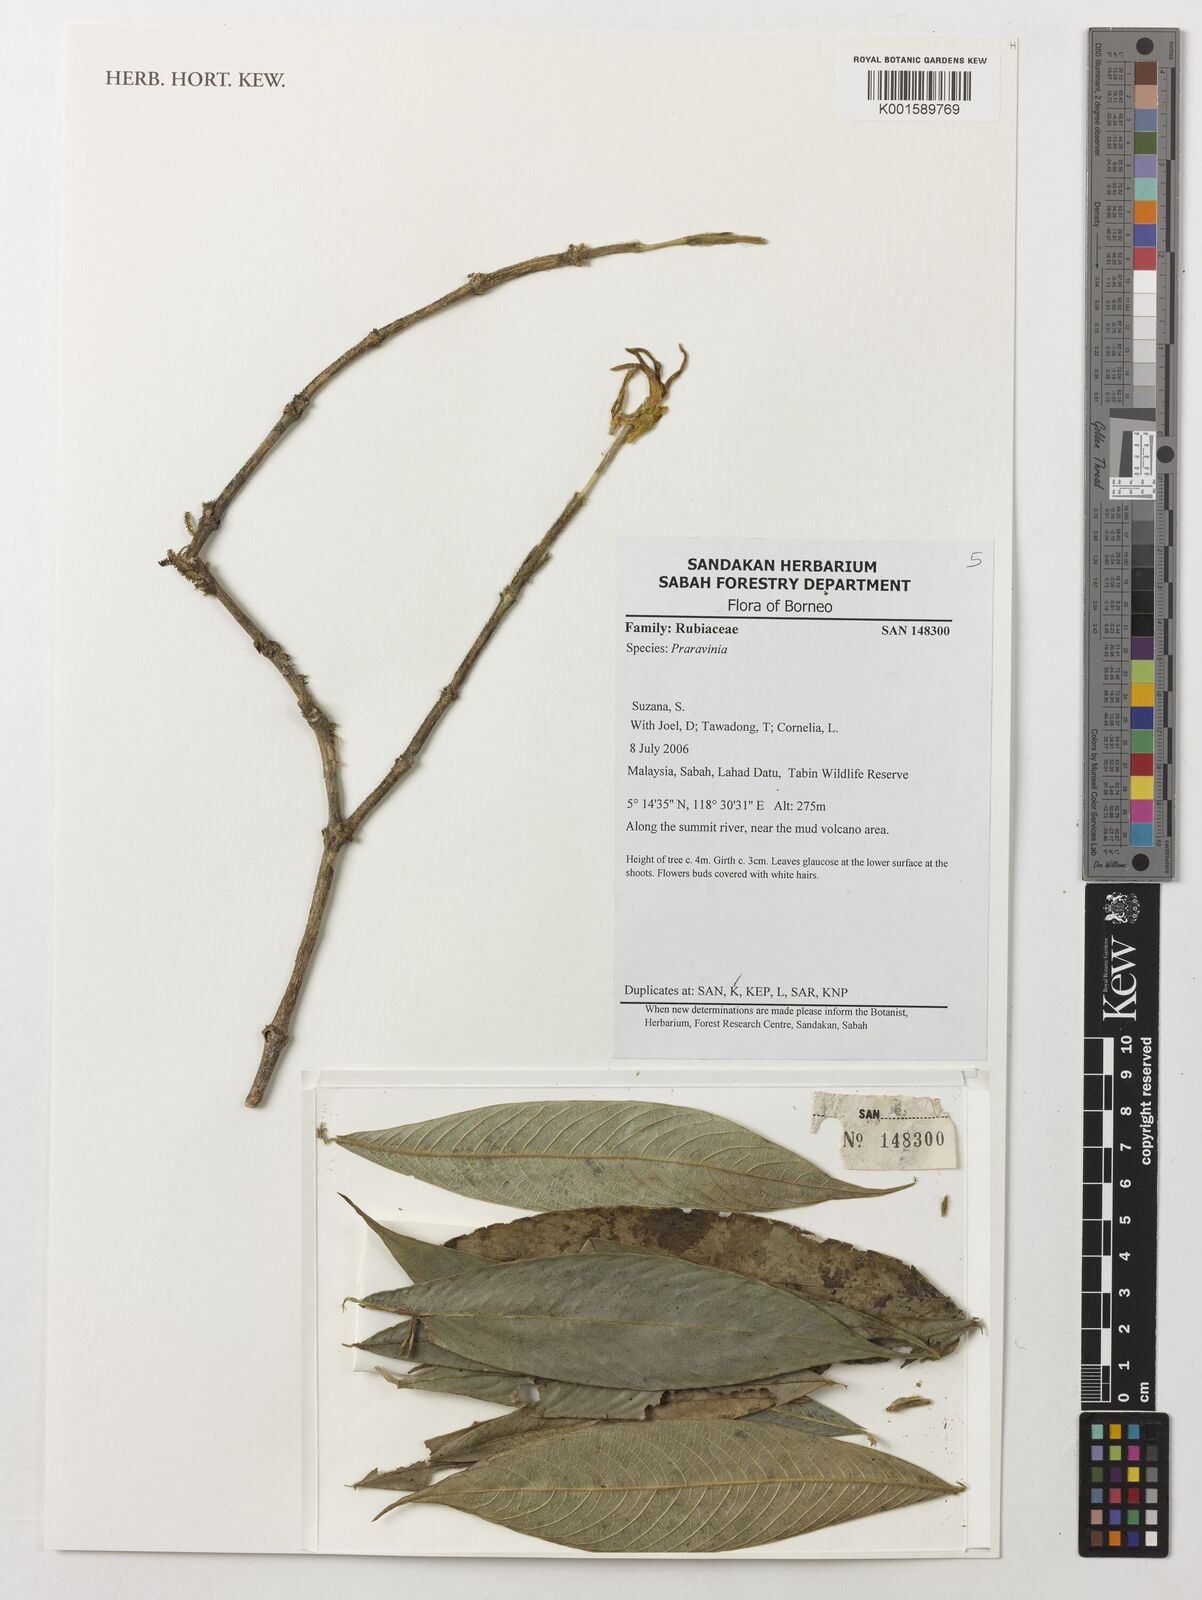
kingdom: Plantae
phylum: Tracheophyta
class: Magnoliopsida
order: Gentianales
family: Rubiaceae
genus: Praravinia
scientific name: Praravinia
